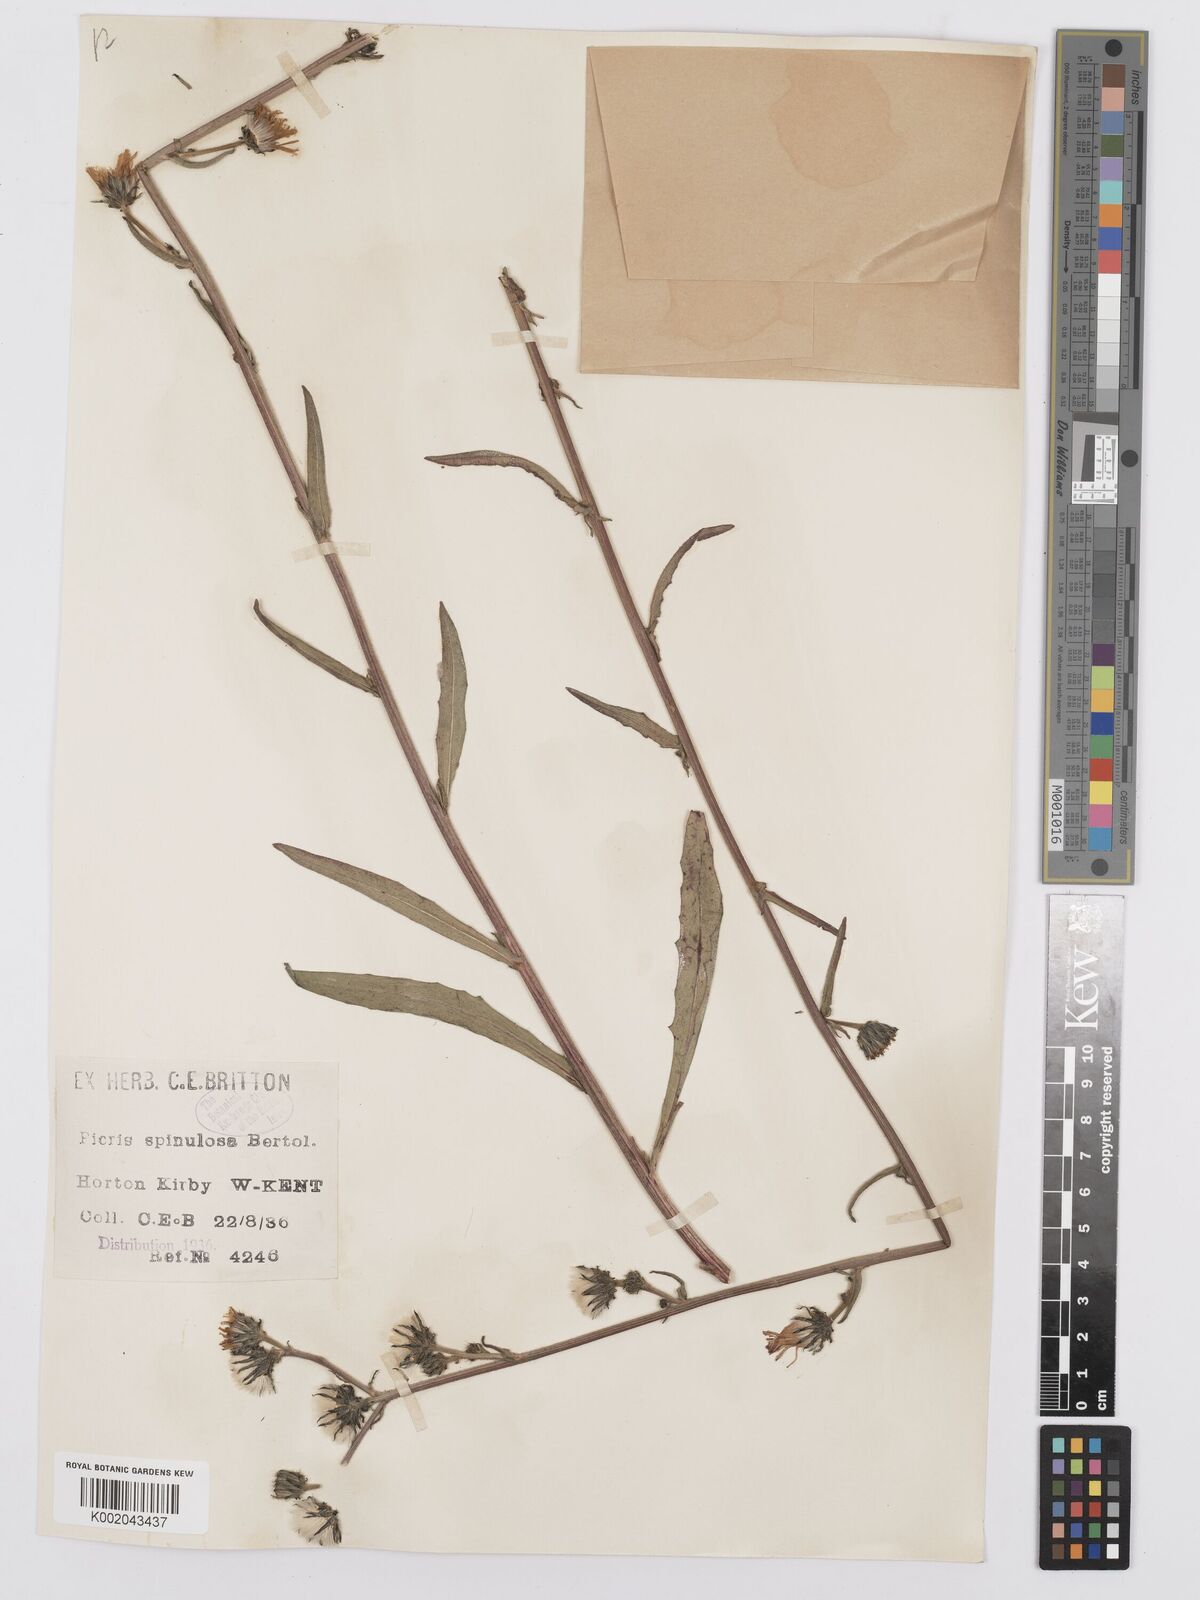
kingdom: Plantae
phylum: Tracheophyta
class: Magnoliopsida
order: Asterales
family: Asteraceae
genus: Picris
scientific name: Picris hieracioides
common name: Hawkweed oxtongue
